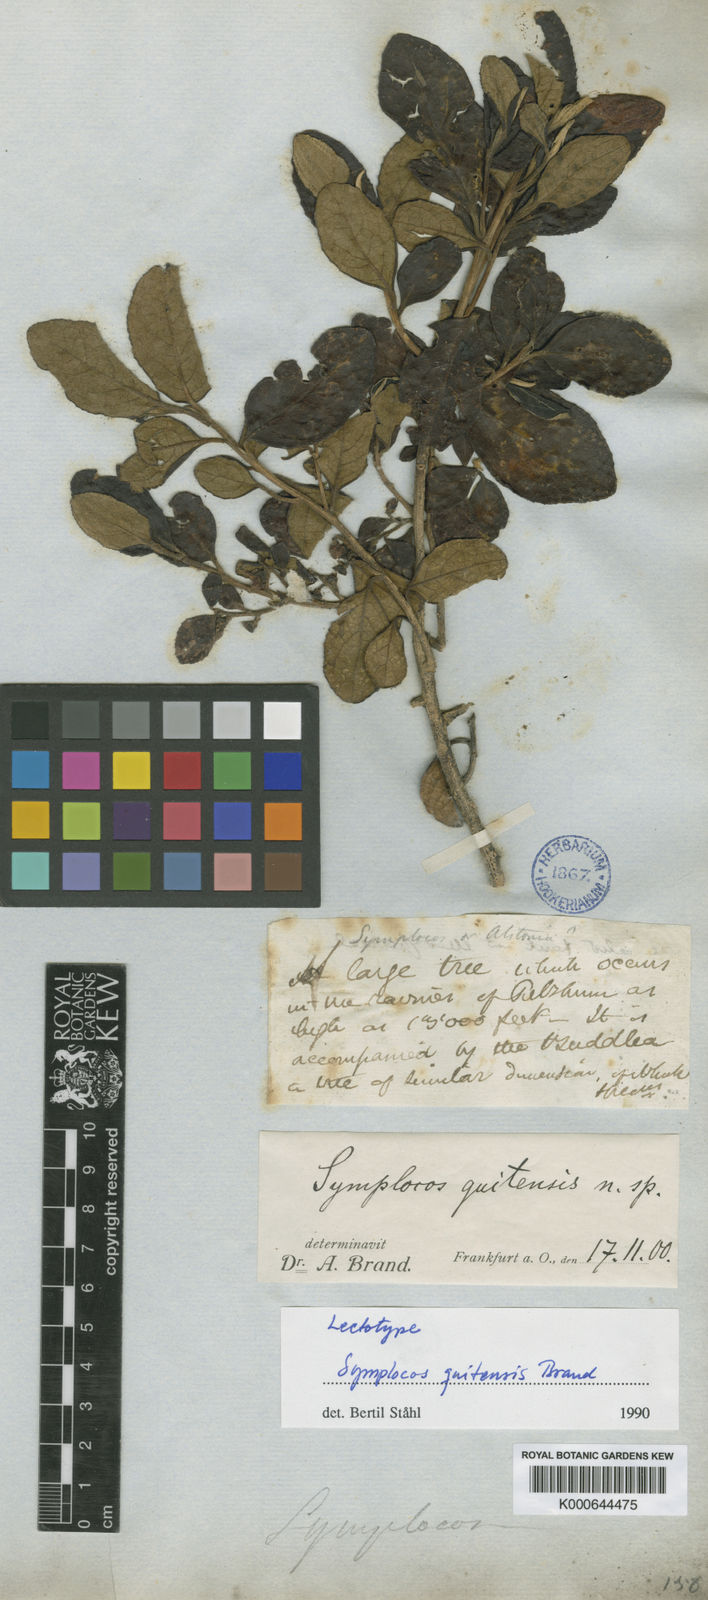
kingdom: Plantae
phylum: Tracheophyta
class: Magnoliopsida
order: Ericales
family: Symplocaceae
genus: Symplocos
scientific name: Symplocos quitensis
